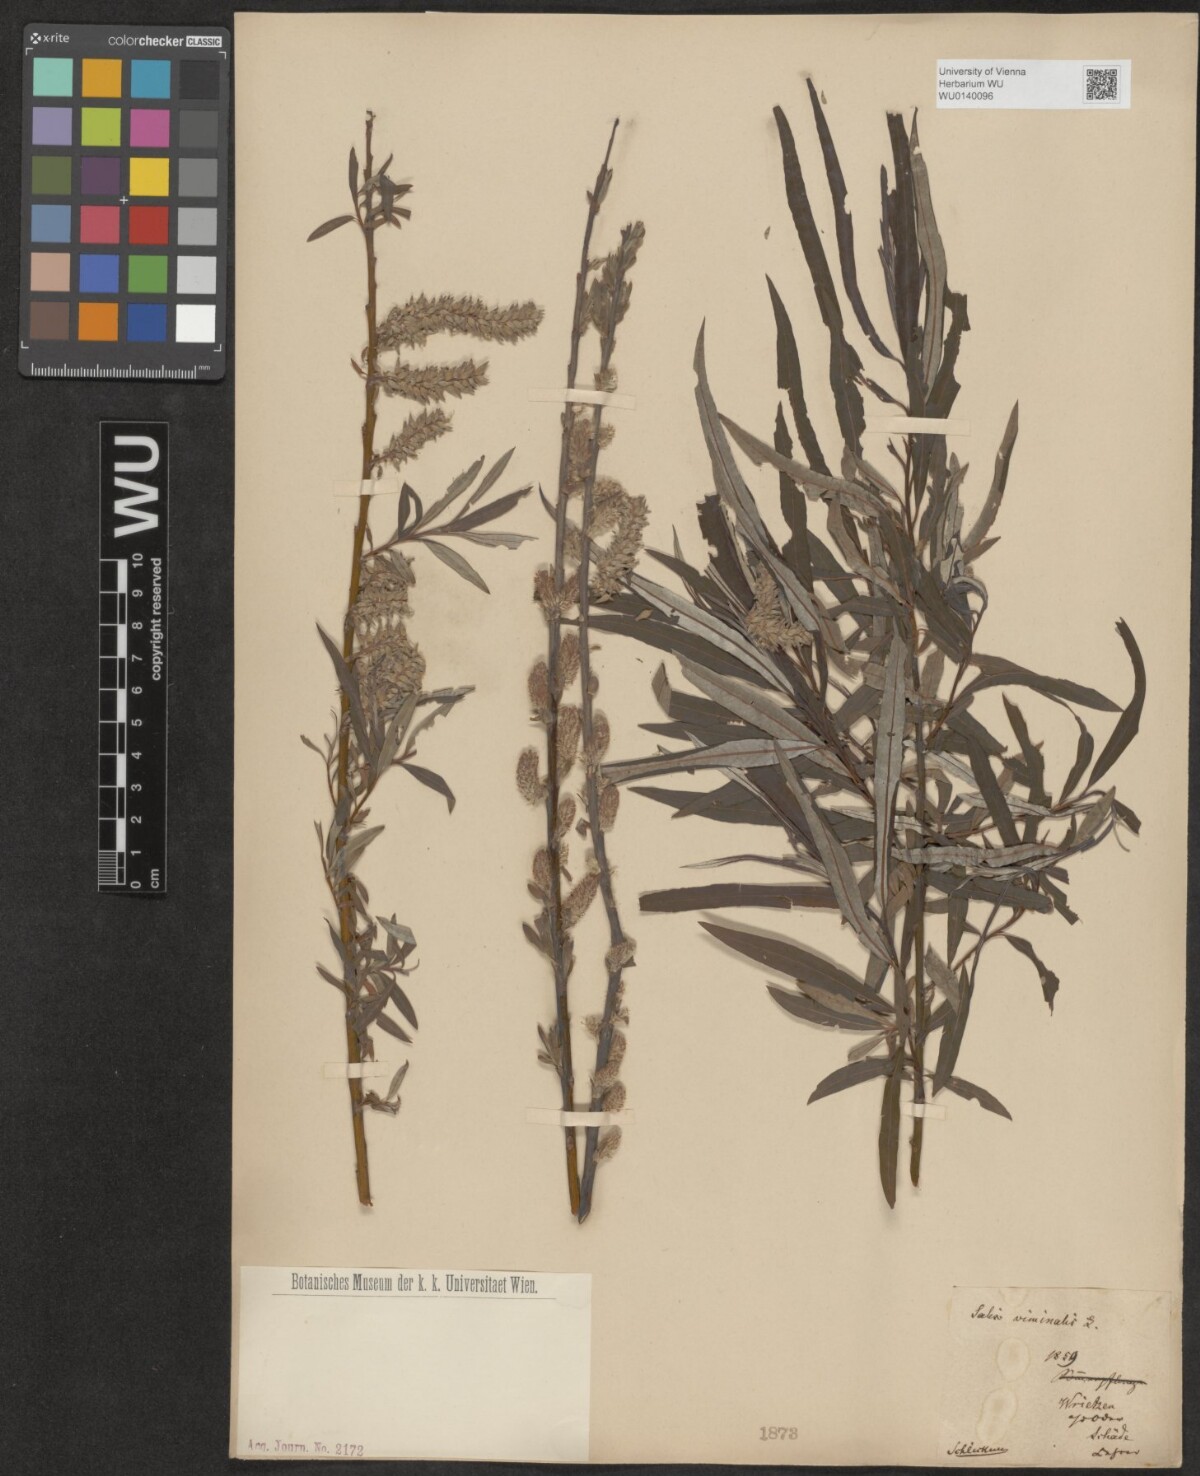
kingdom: Plantae
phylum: Tracheophyta
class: Magnoliopsida
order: Malpighiales
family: Salicaceae
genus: Salix
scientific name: Salix viminalis
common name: Osier
